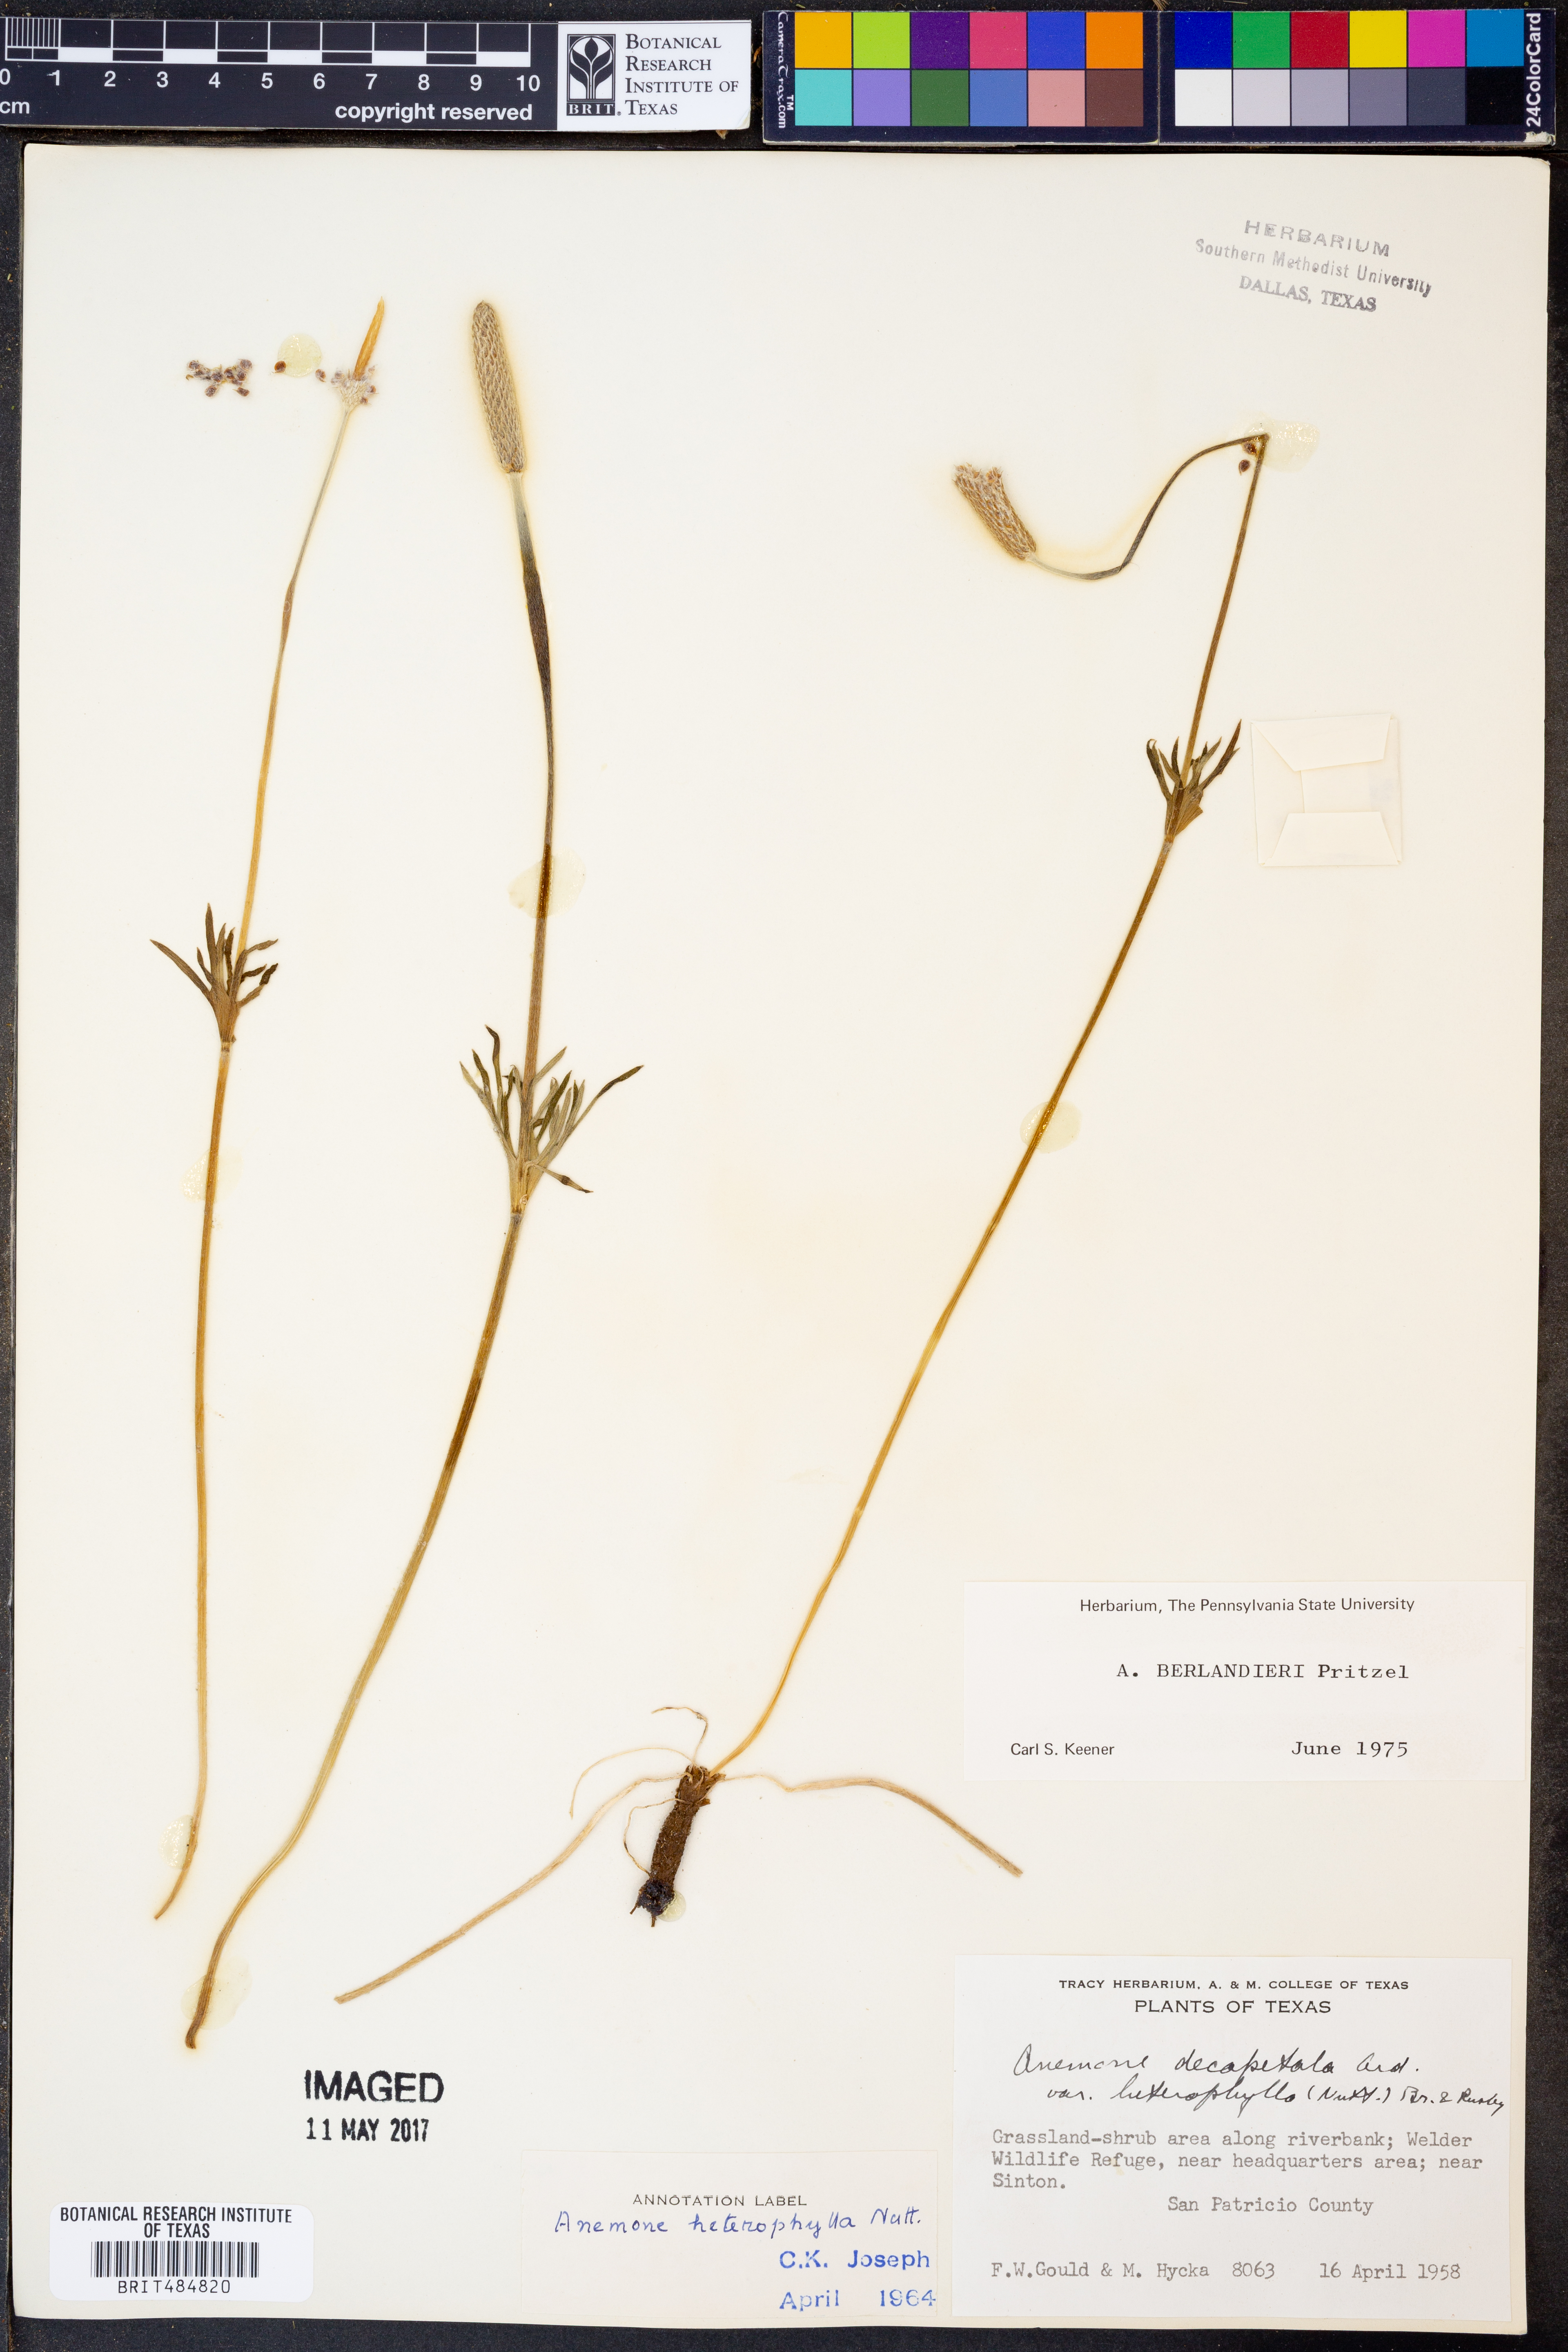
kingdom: Plantae
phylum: Tracheophyta
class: Magnoliopsida
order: Ranunculales
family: Ranunculaceae
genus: Anemone
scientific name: Anemone heterophylla
